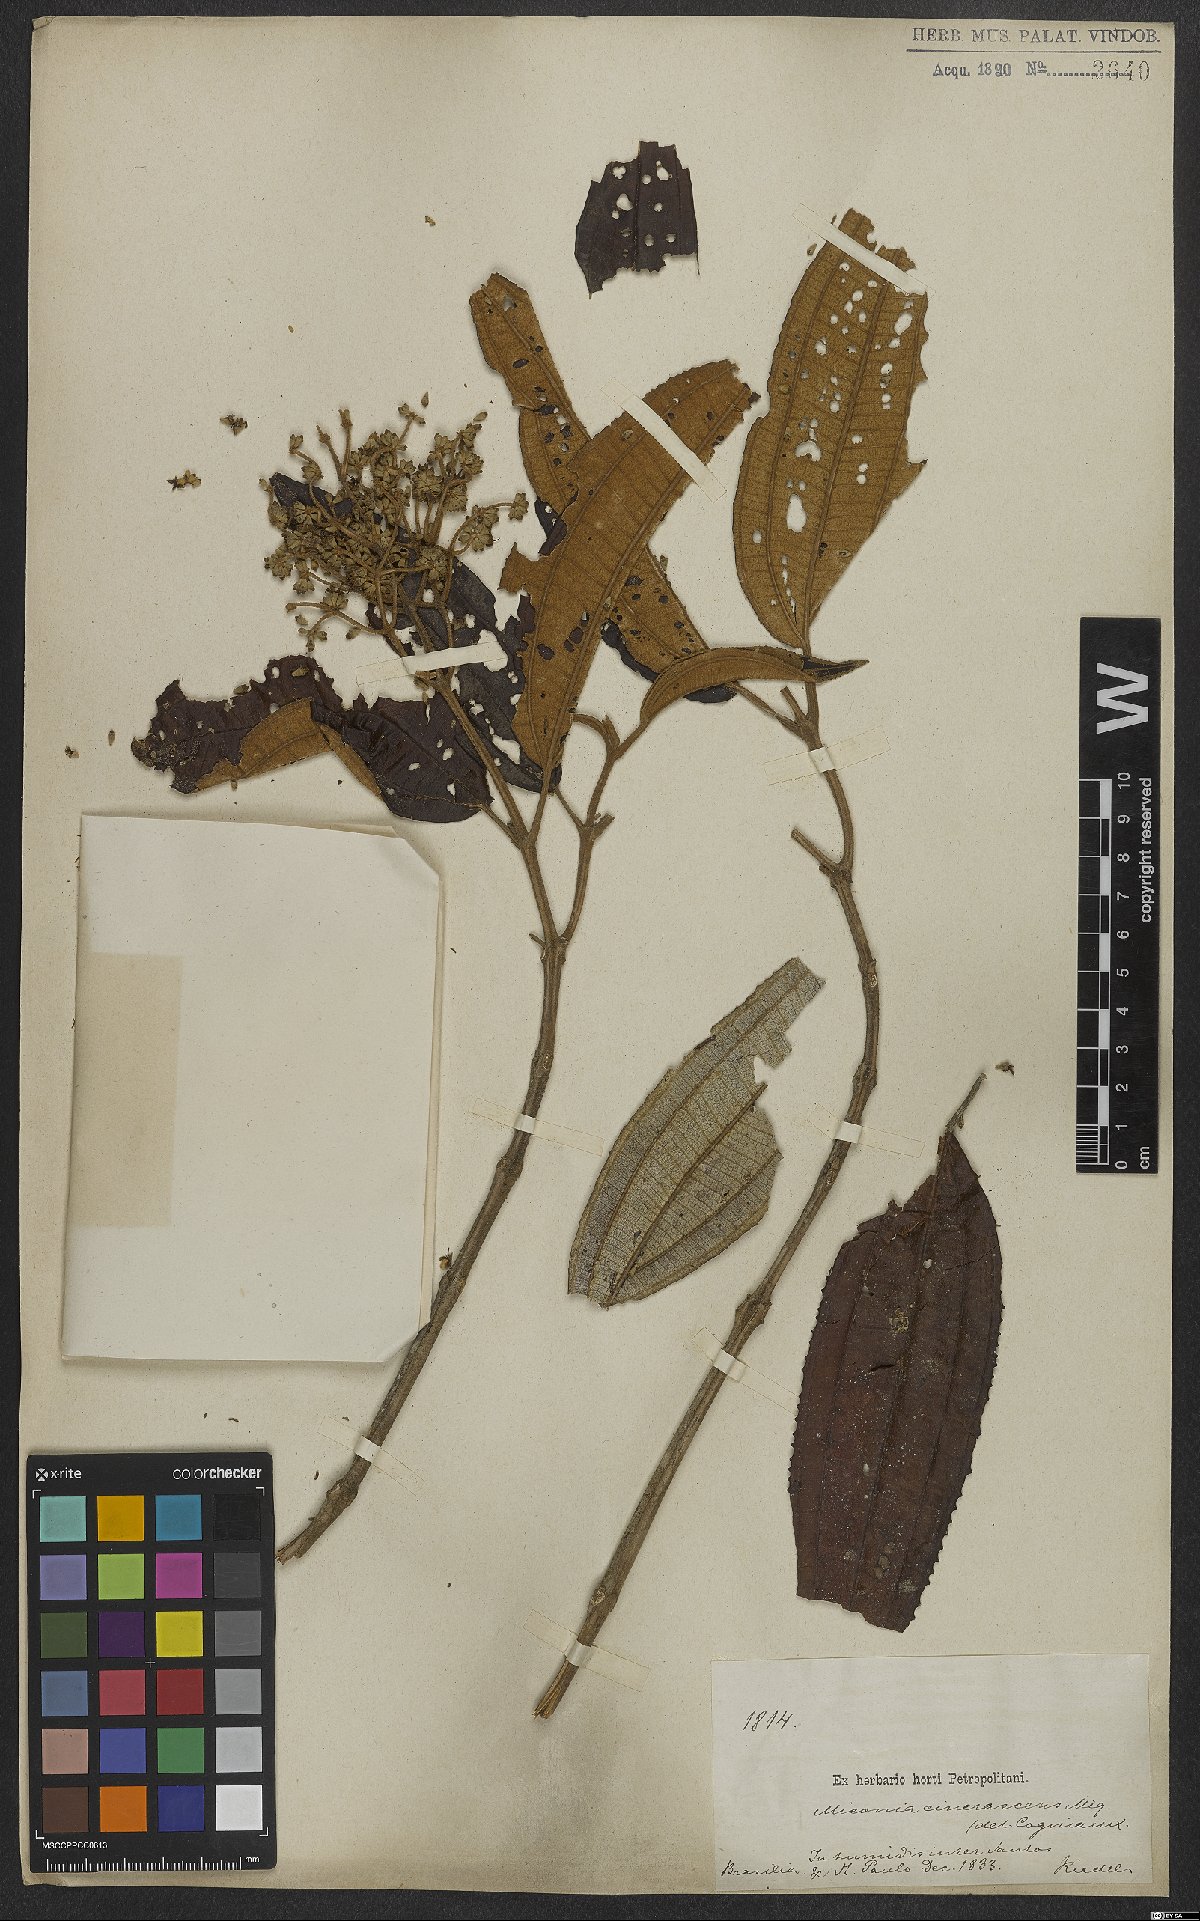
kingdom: Plantae
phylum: Tracheophyta
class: Magnoliopsida
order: Myrtales
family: Melastomataceae
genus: Miconia
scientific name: Miconia cinerascens
